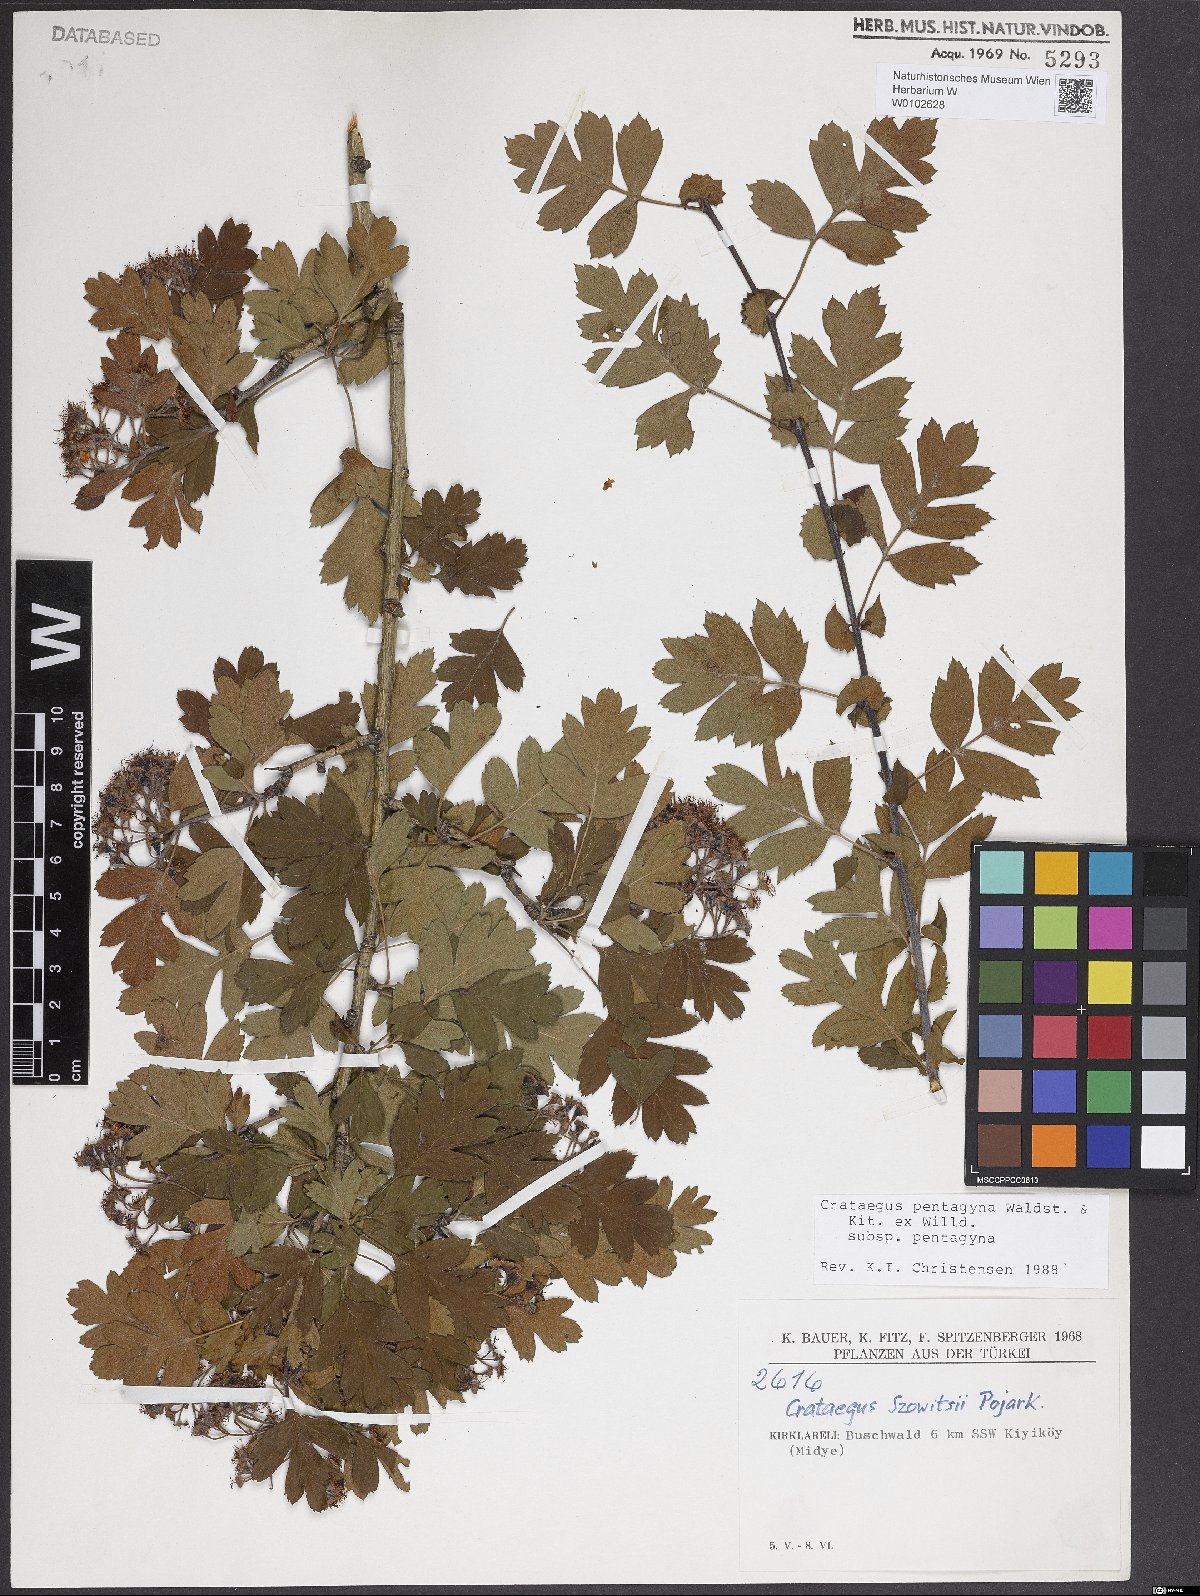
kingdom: Plantae
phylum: Tracheophyta
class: Magnoliopsida
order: Rosales
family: Rosaceae
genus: Crataegus
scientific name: Crataegus pentagyna
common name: Small-flowered black hawthorn
